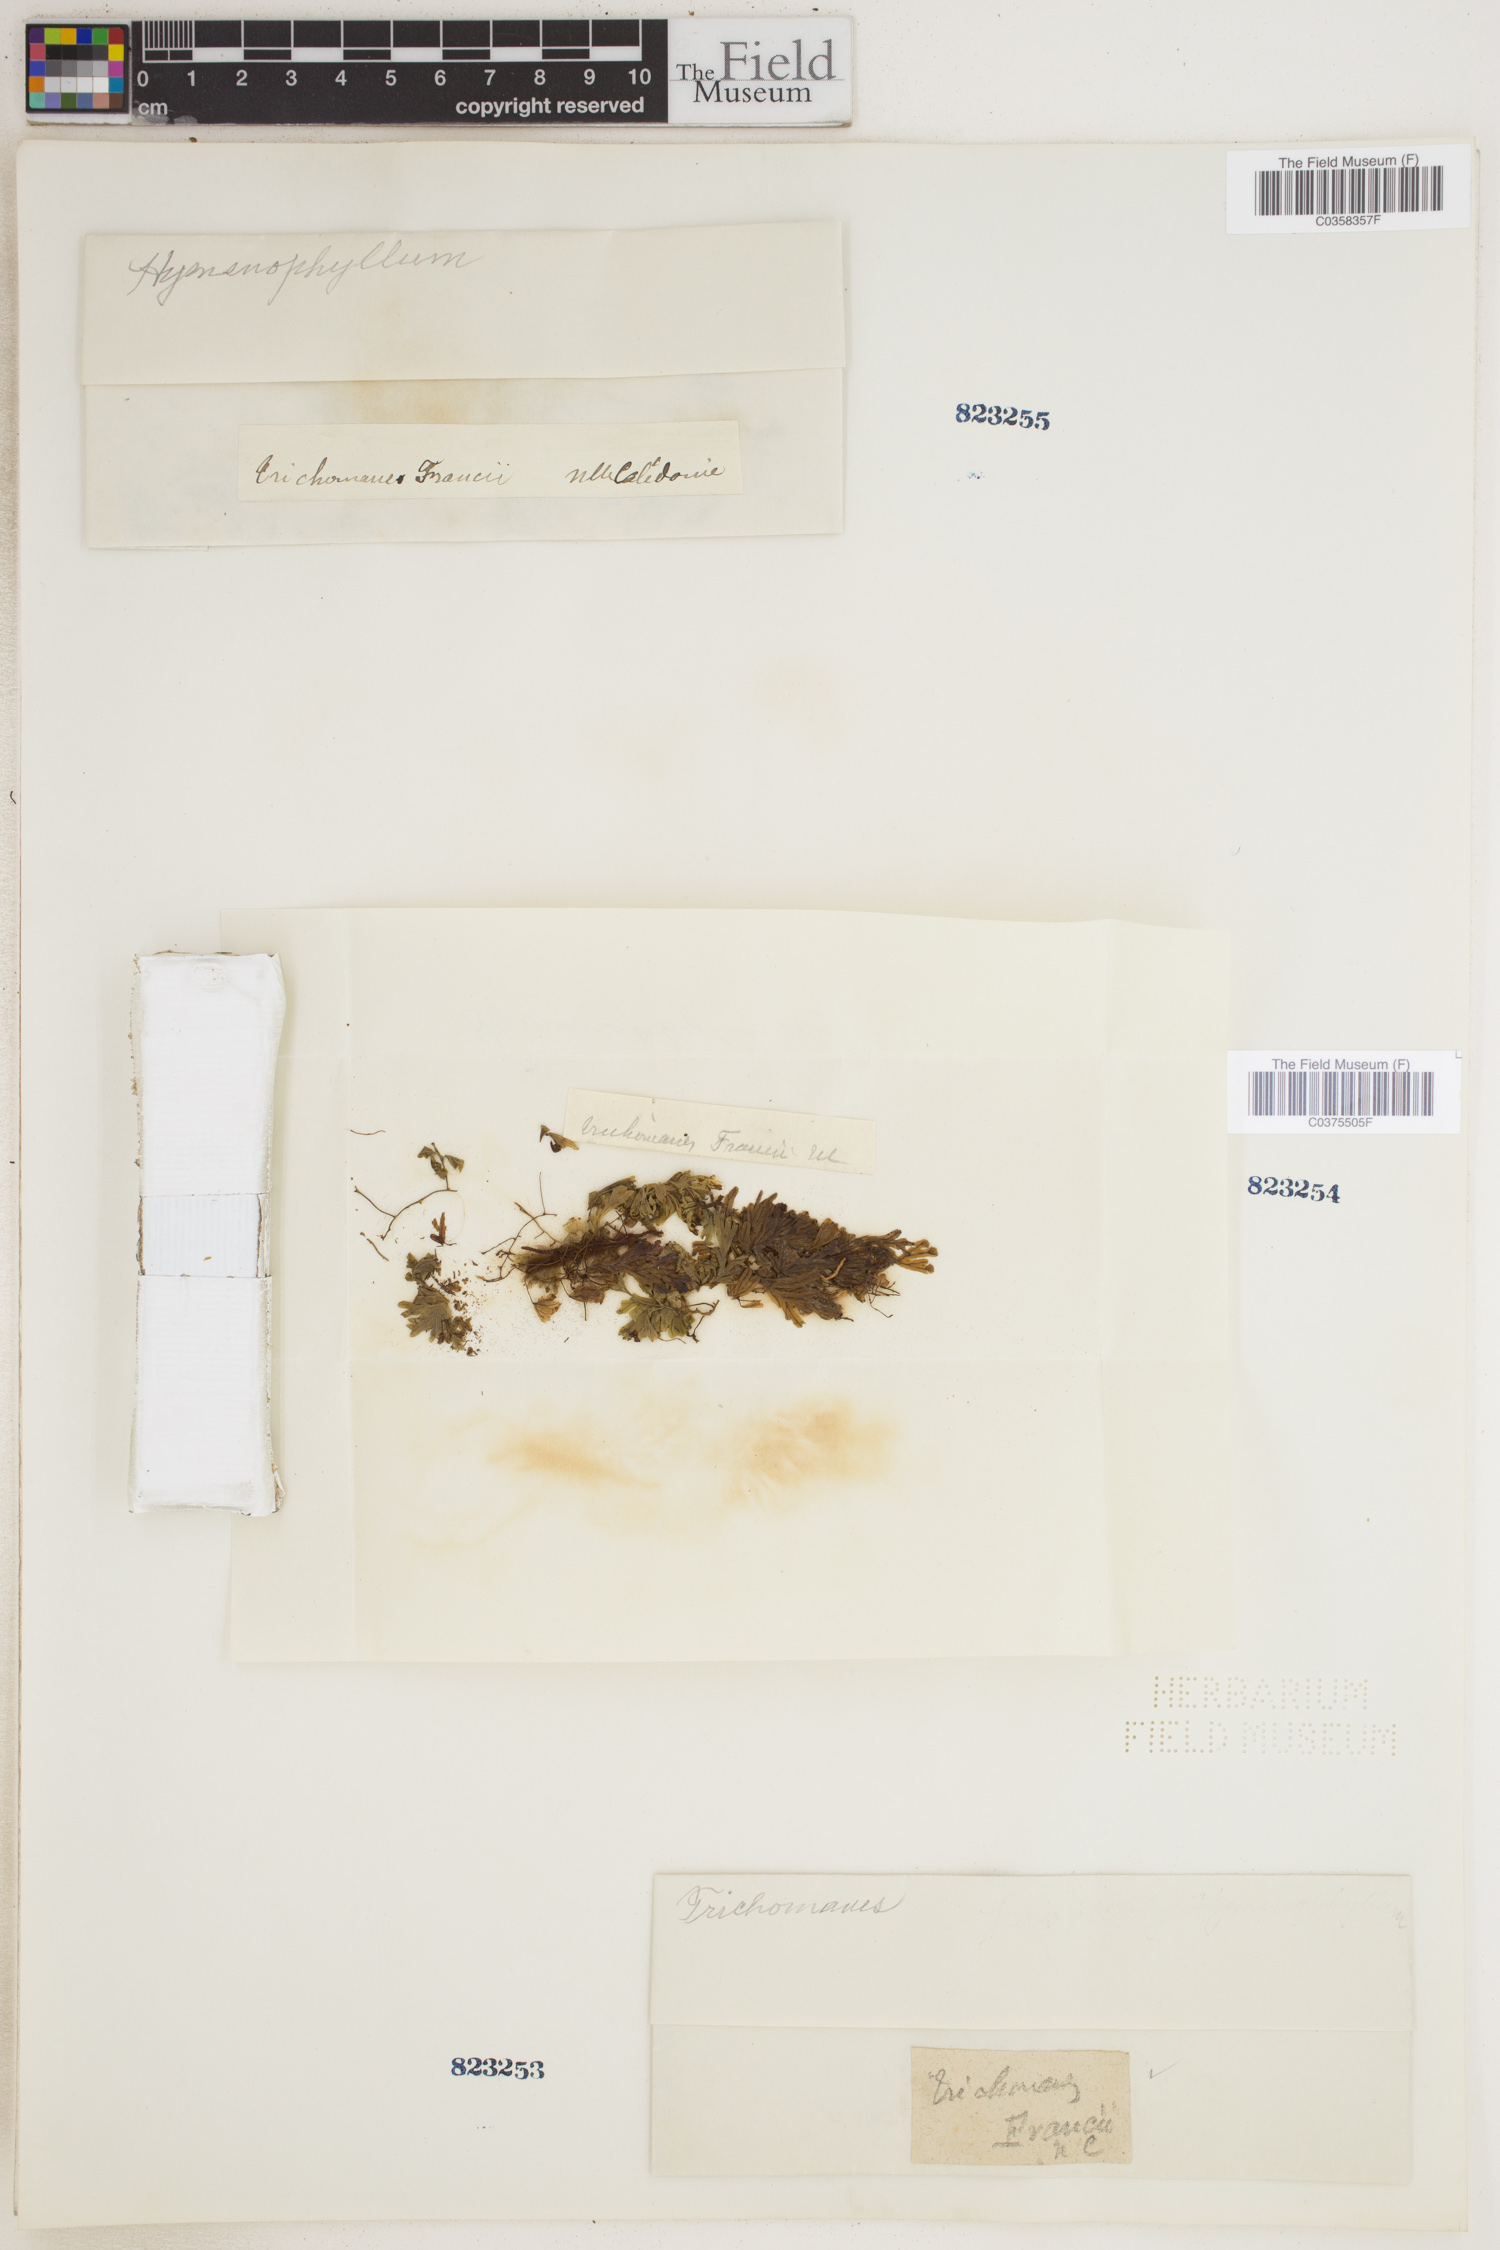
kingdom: Plantae
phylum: Tracheophyta
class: Polypodiopsida
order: Hymenophyllales
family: Hymenophyllaceae
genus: Hymenophyllum
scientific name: Hymenophyllum francii
